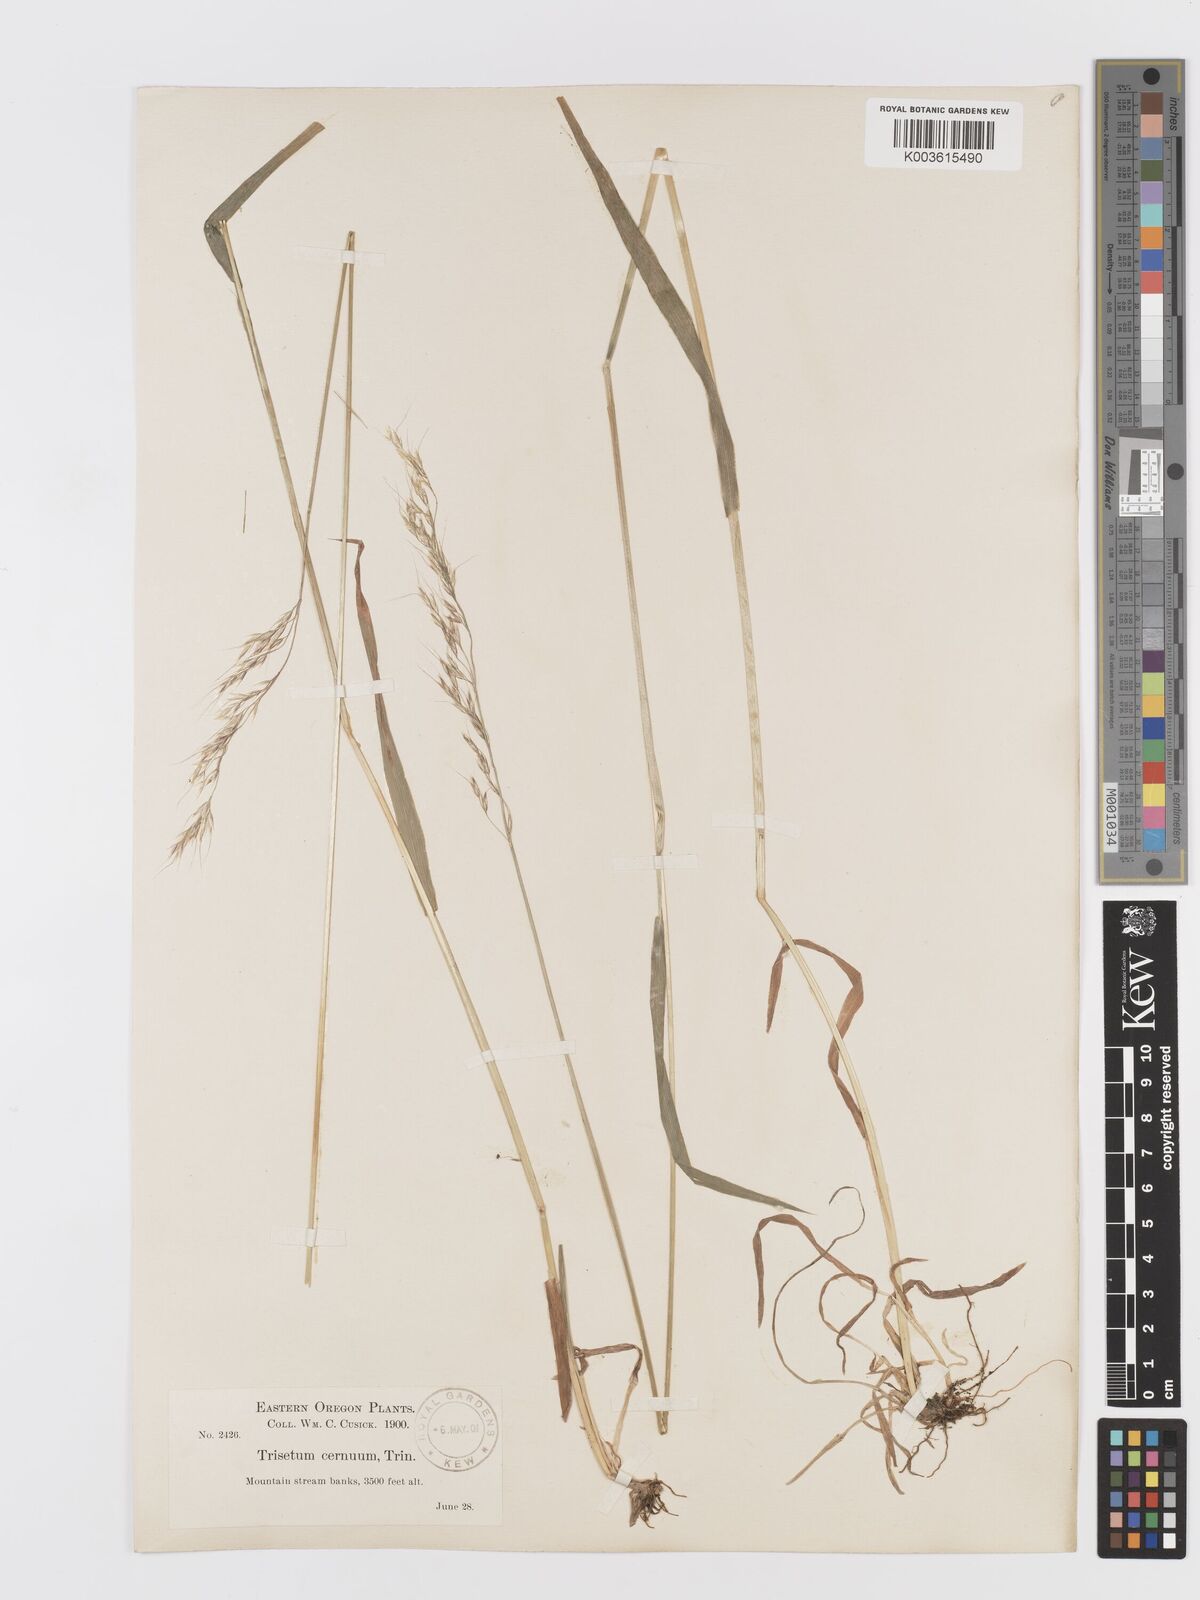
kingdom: Plantae
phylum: Tracheophyta
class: Liliopsida
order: Poales
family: Poaceae
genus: Graphephorum
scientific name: Graphephorum cernuum
